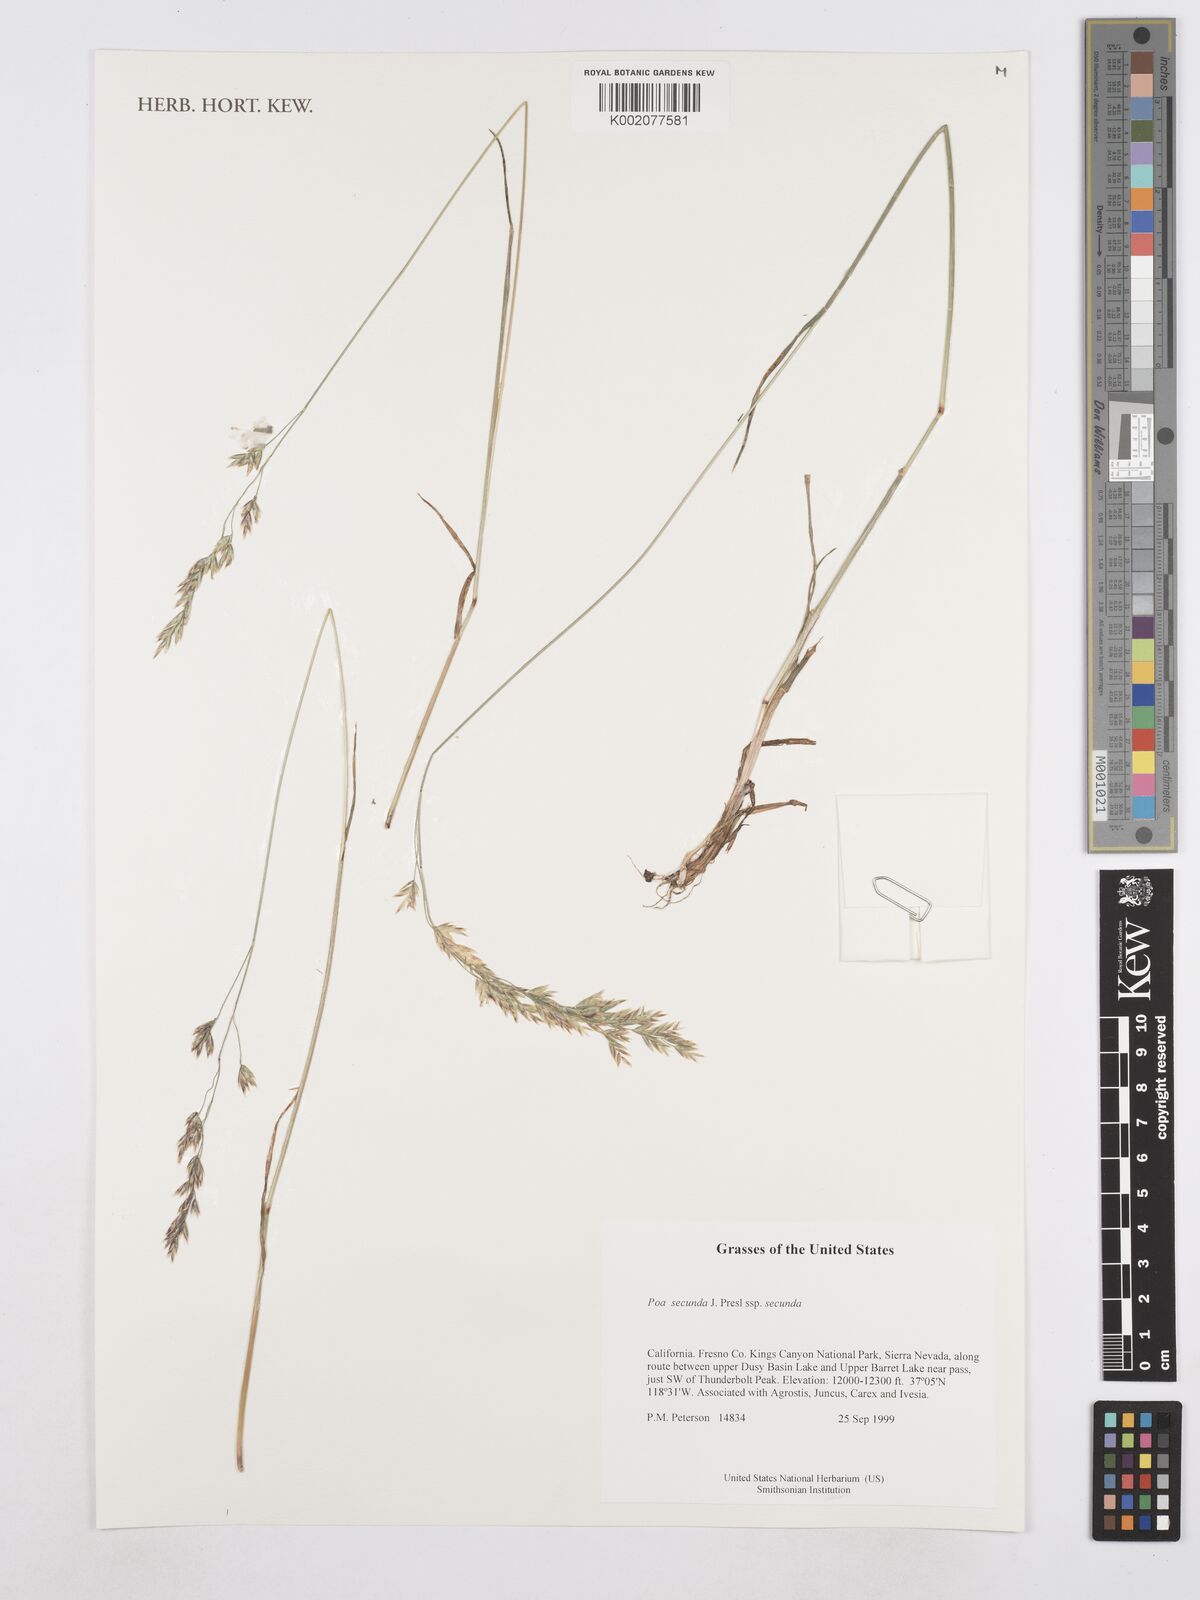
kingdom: Plantae
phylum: Tracheophyta
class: Liliopsida
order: Poales
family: Poaceae
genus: Poa
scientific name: Poa secunda
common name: Sandberg bluegrass
